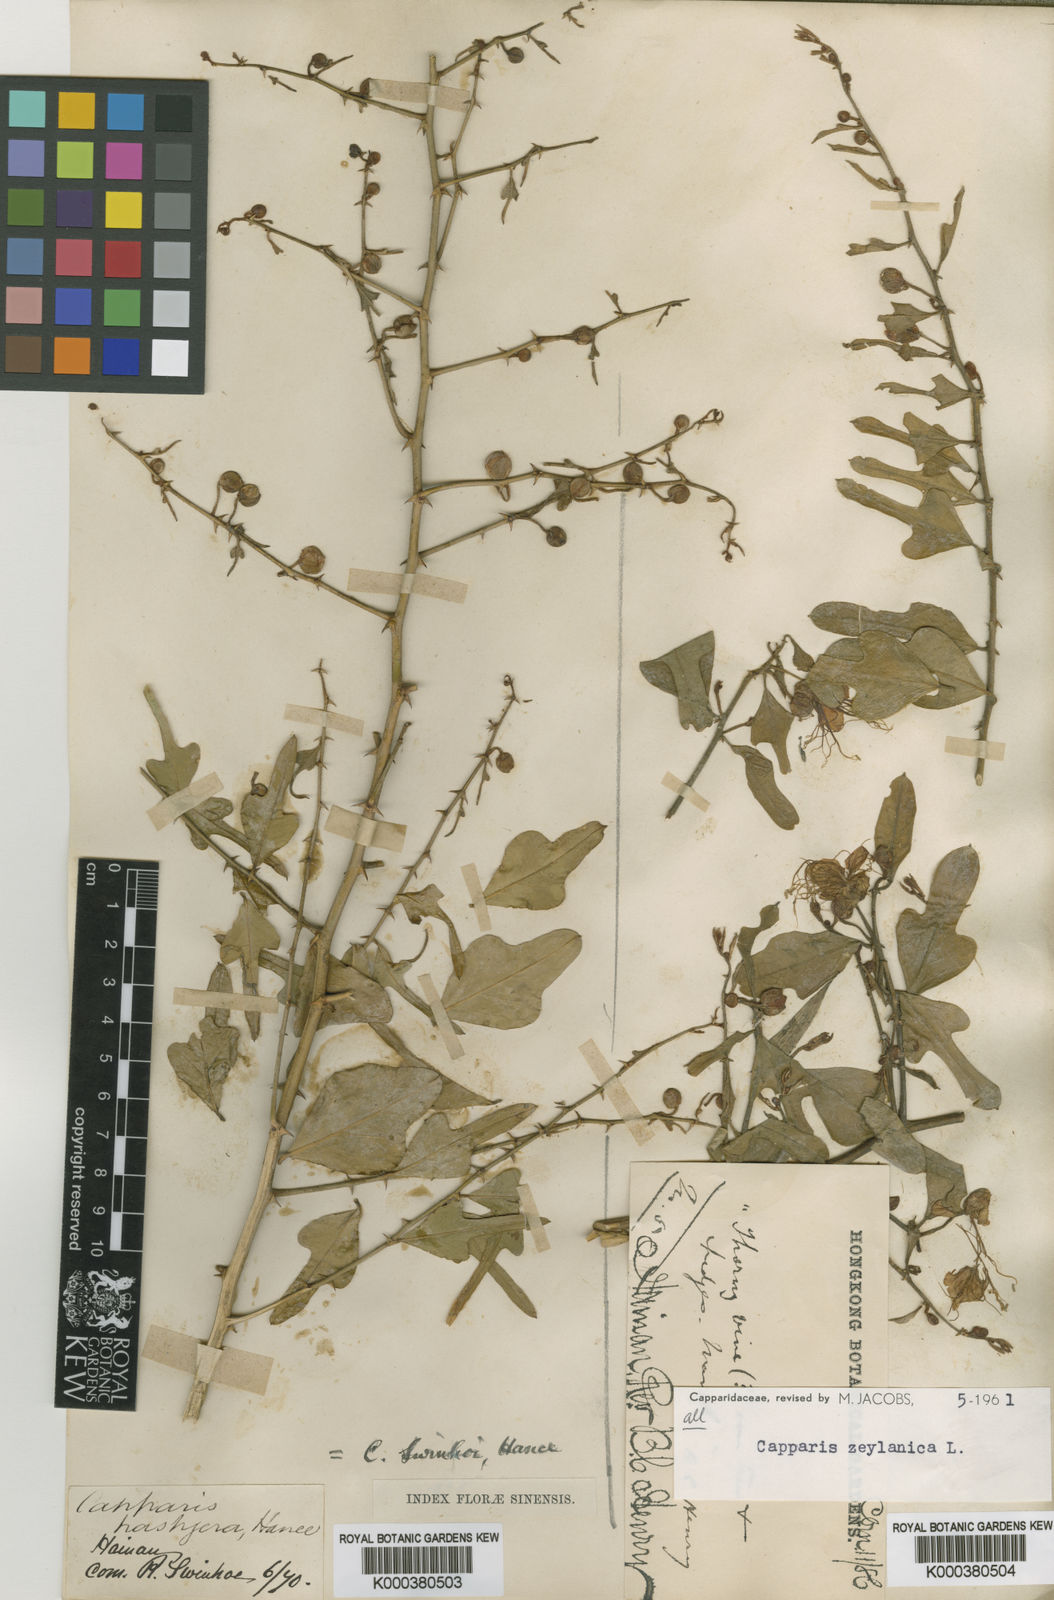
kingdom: Plantae
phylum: Tracheophyta
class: Magnoliopsida
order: Brassicales
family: Capparaceae
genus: Capparis
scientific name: Capparis zeylanica
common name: Ceylon caper
